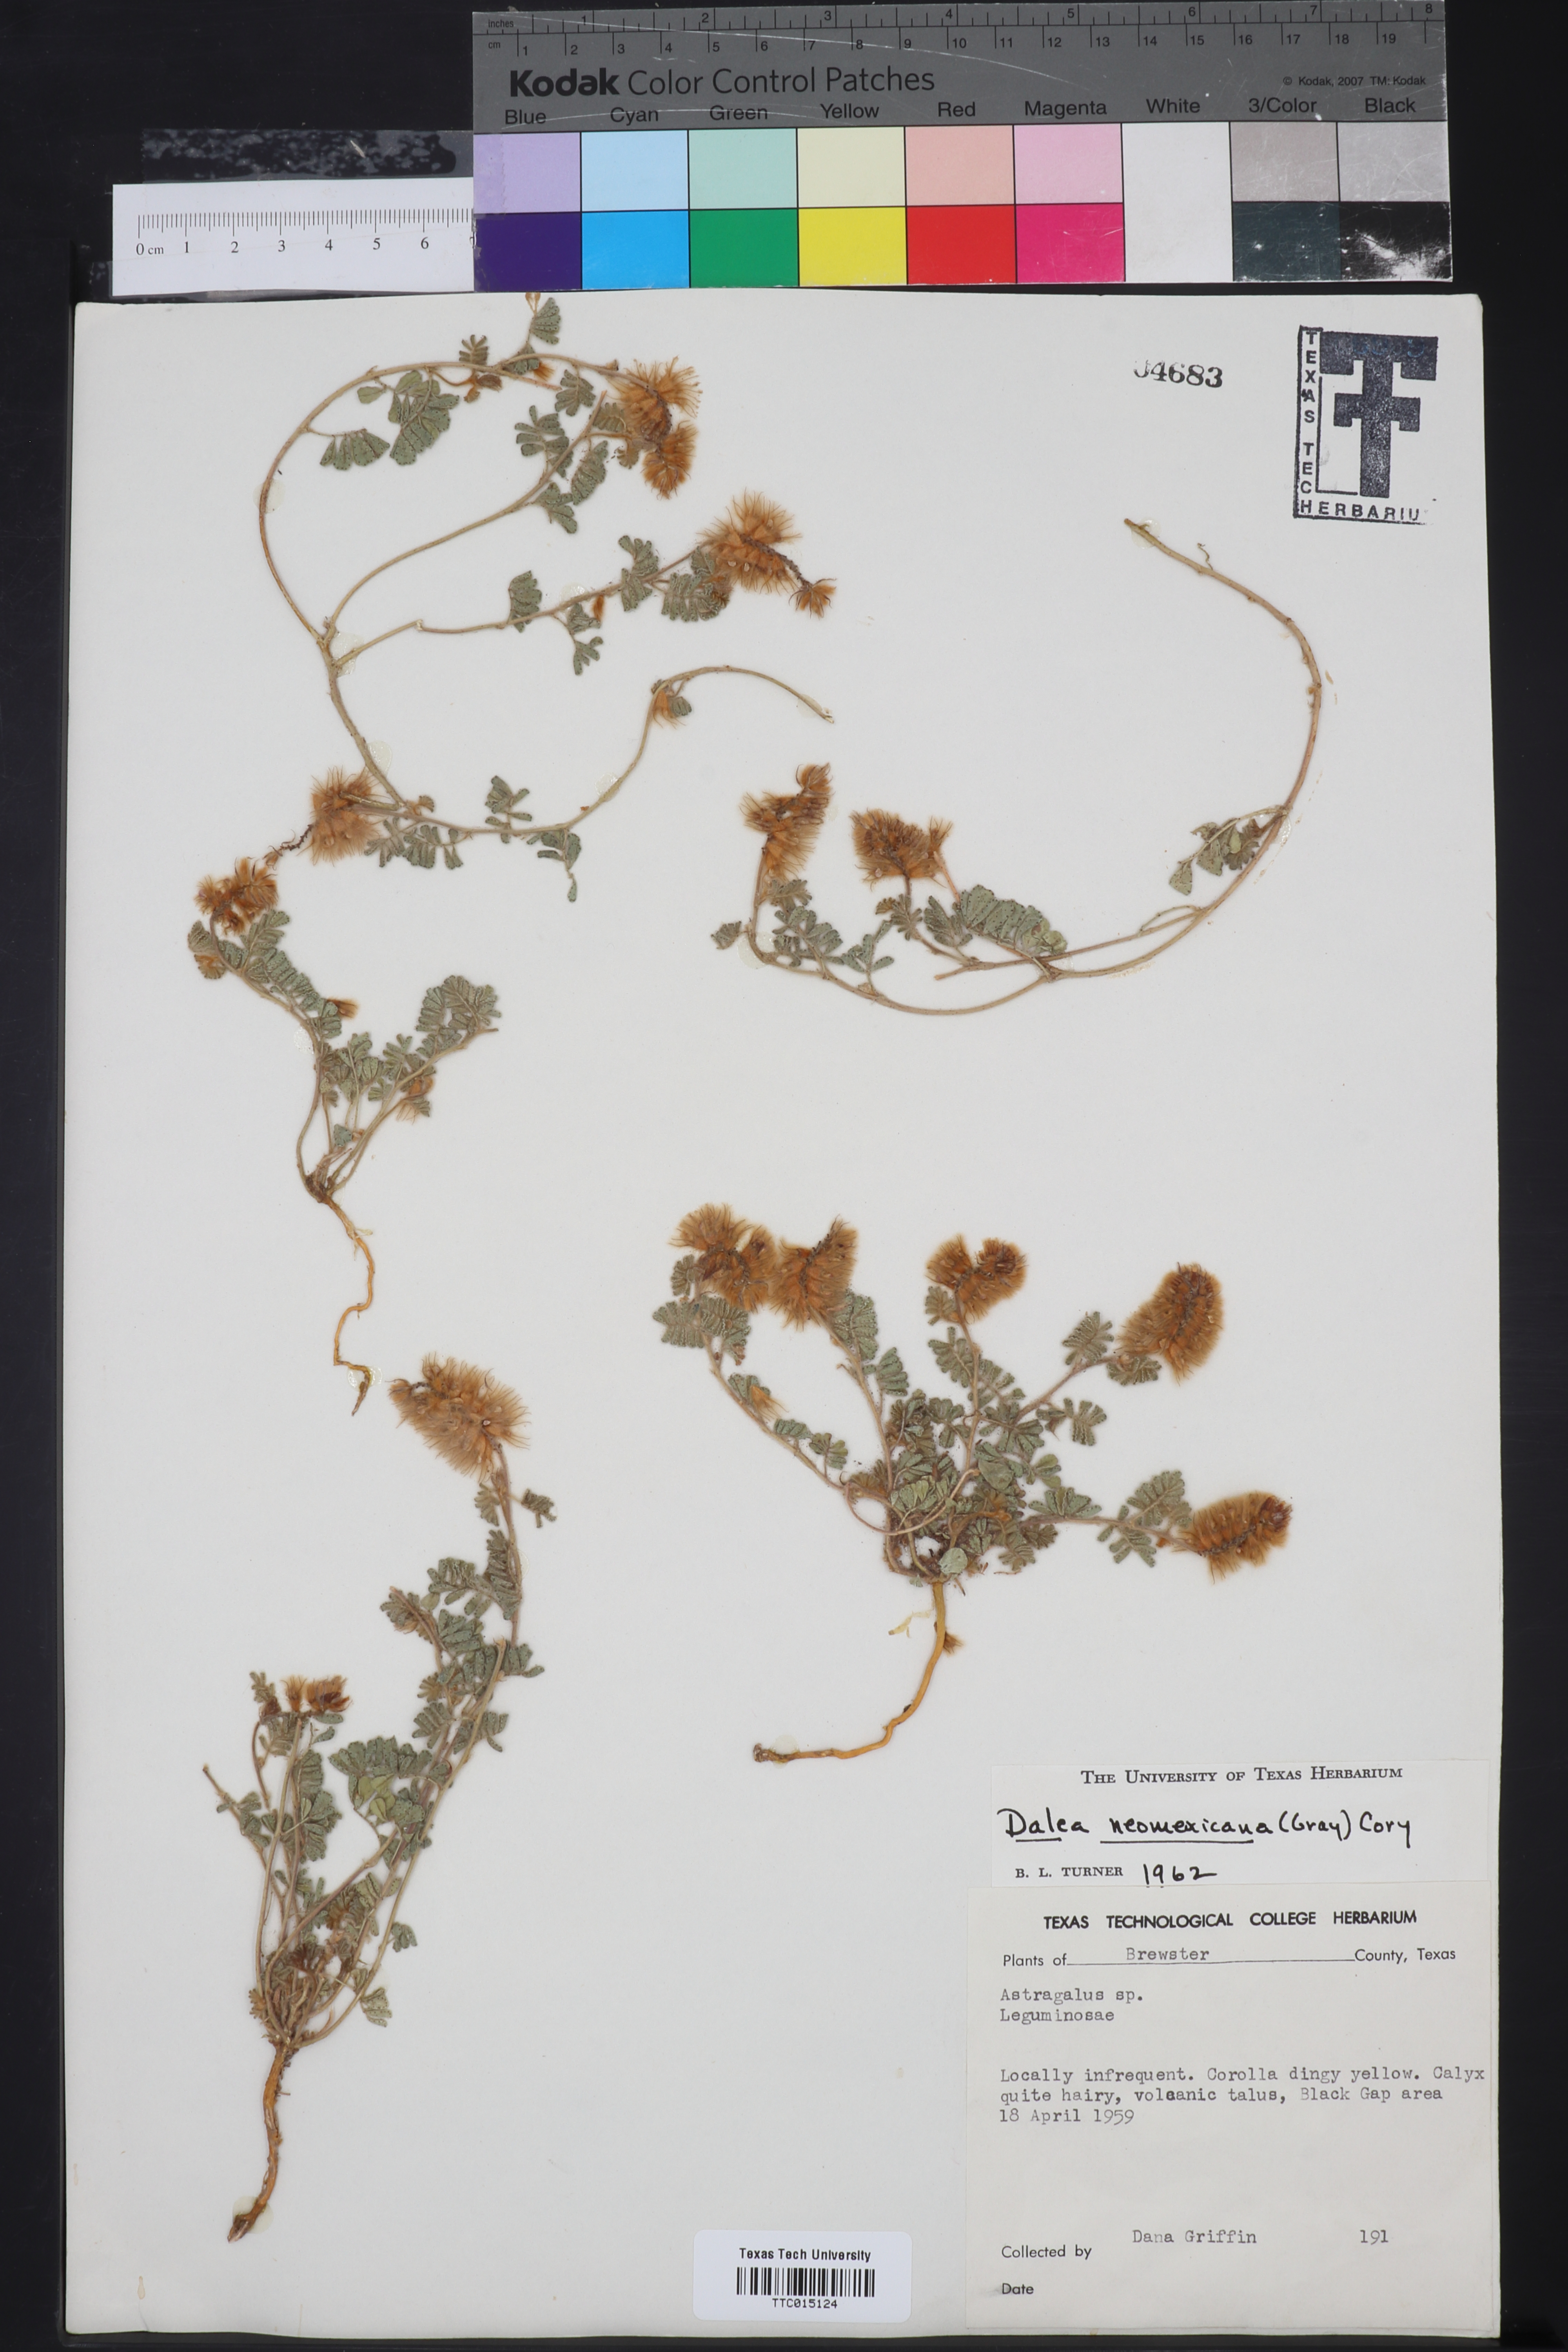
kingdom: Plantae
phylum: Tracheophyta
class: Magnoliopsida
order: Fabales
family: Fabaceae
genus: Dalea
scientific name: Dalea neomexicana
